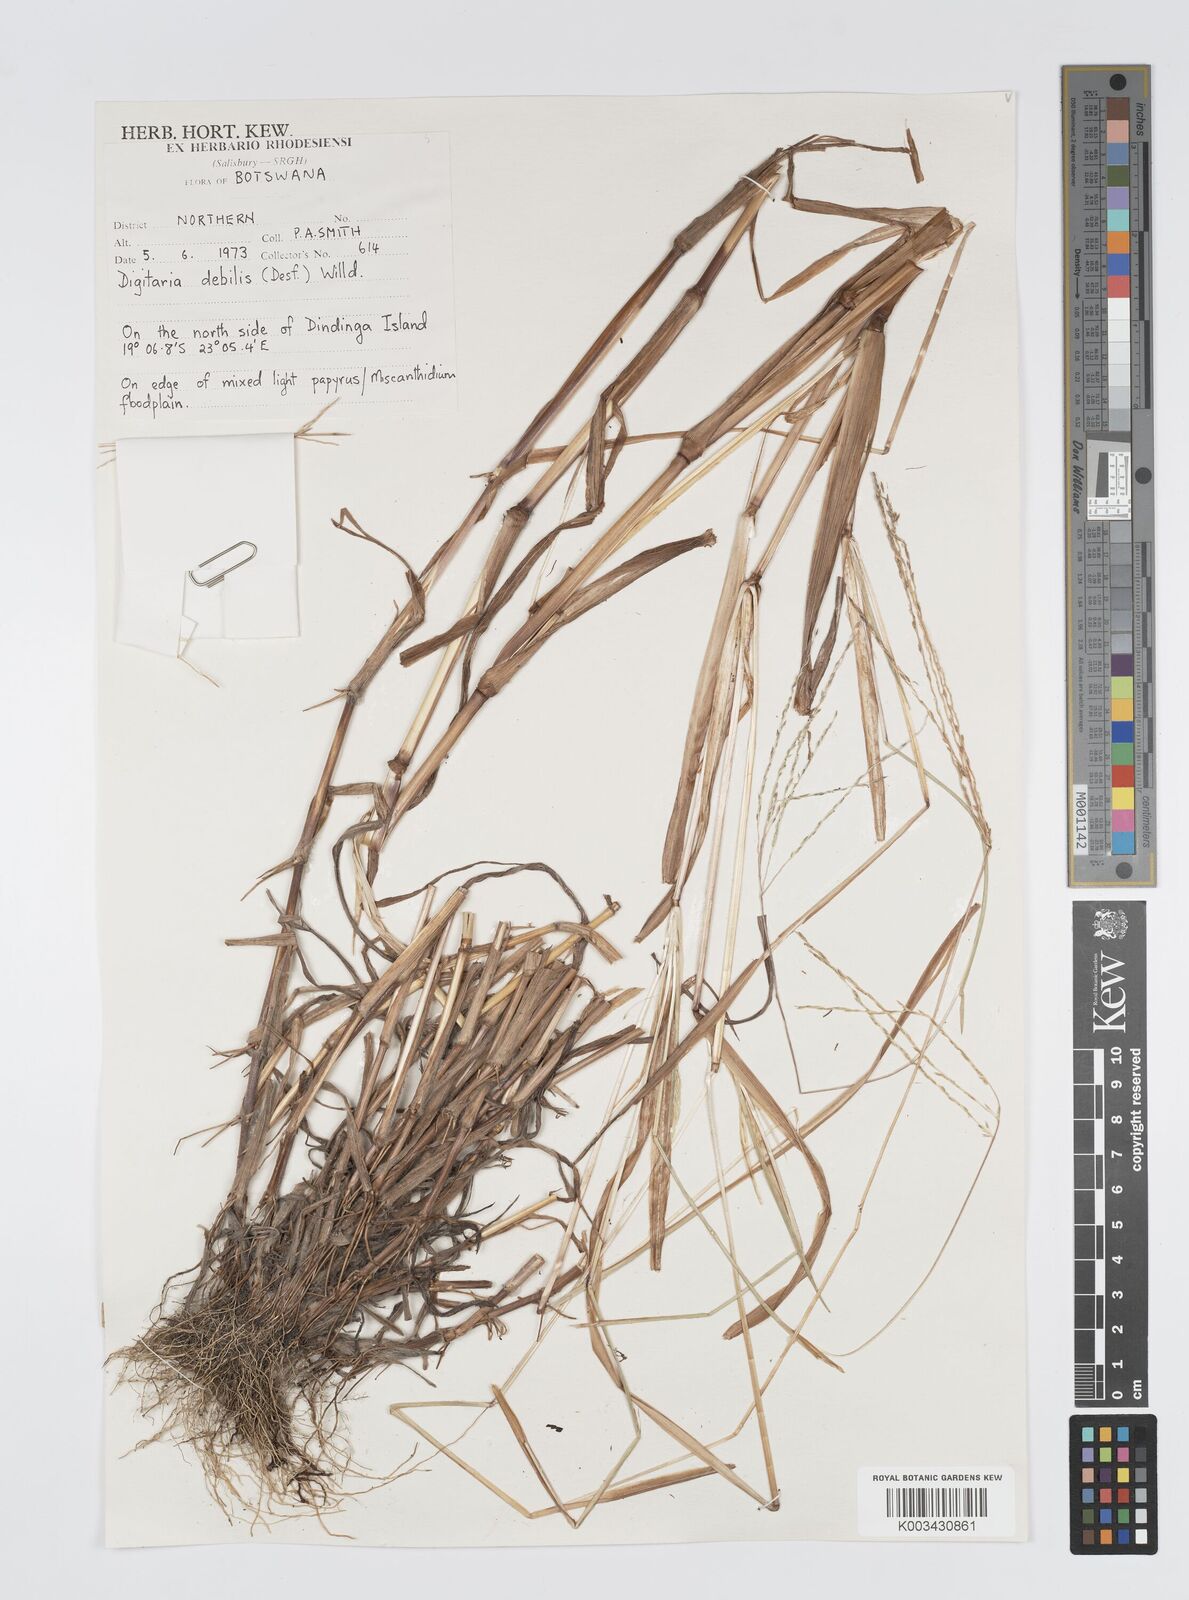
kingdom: Plantae
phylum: Tracheophyta
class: Liliopsida
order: Poales
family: Poaceae
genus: Digitaria
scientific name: Digitaria debilis
